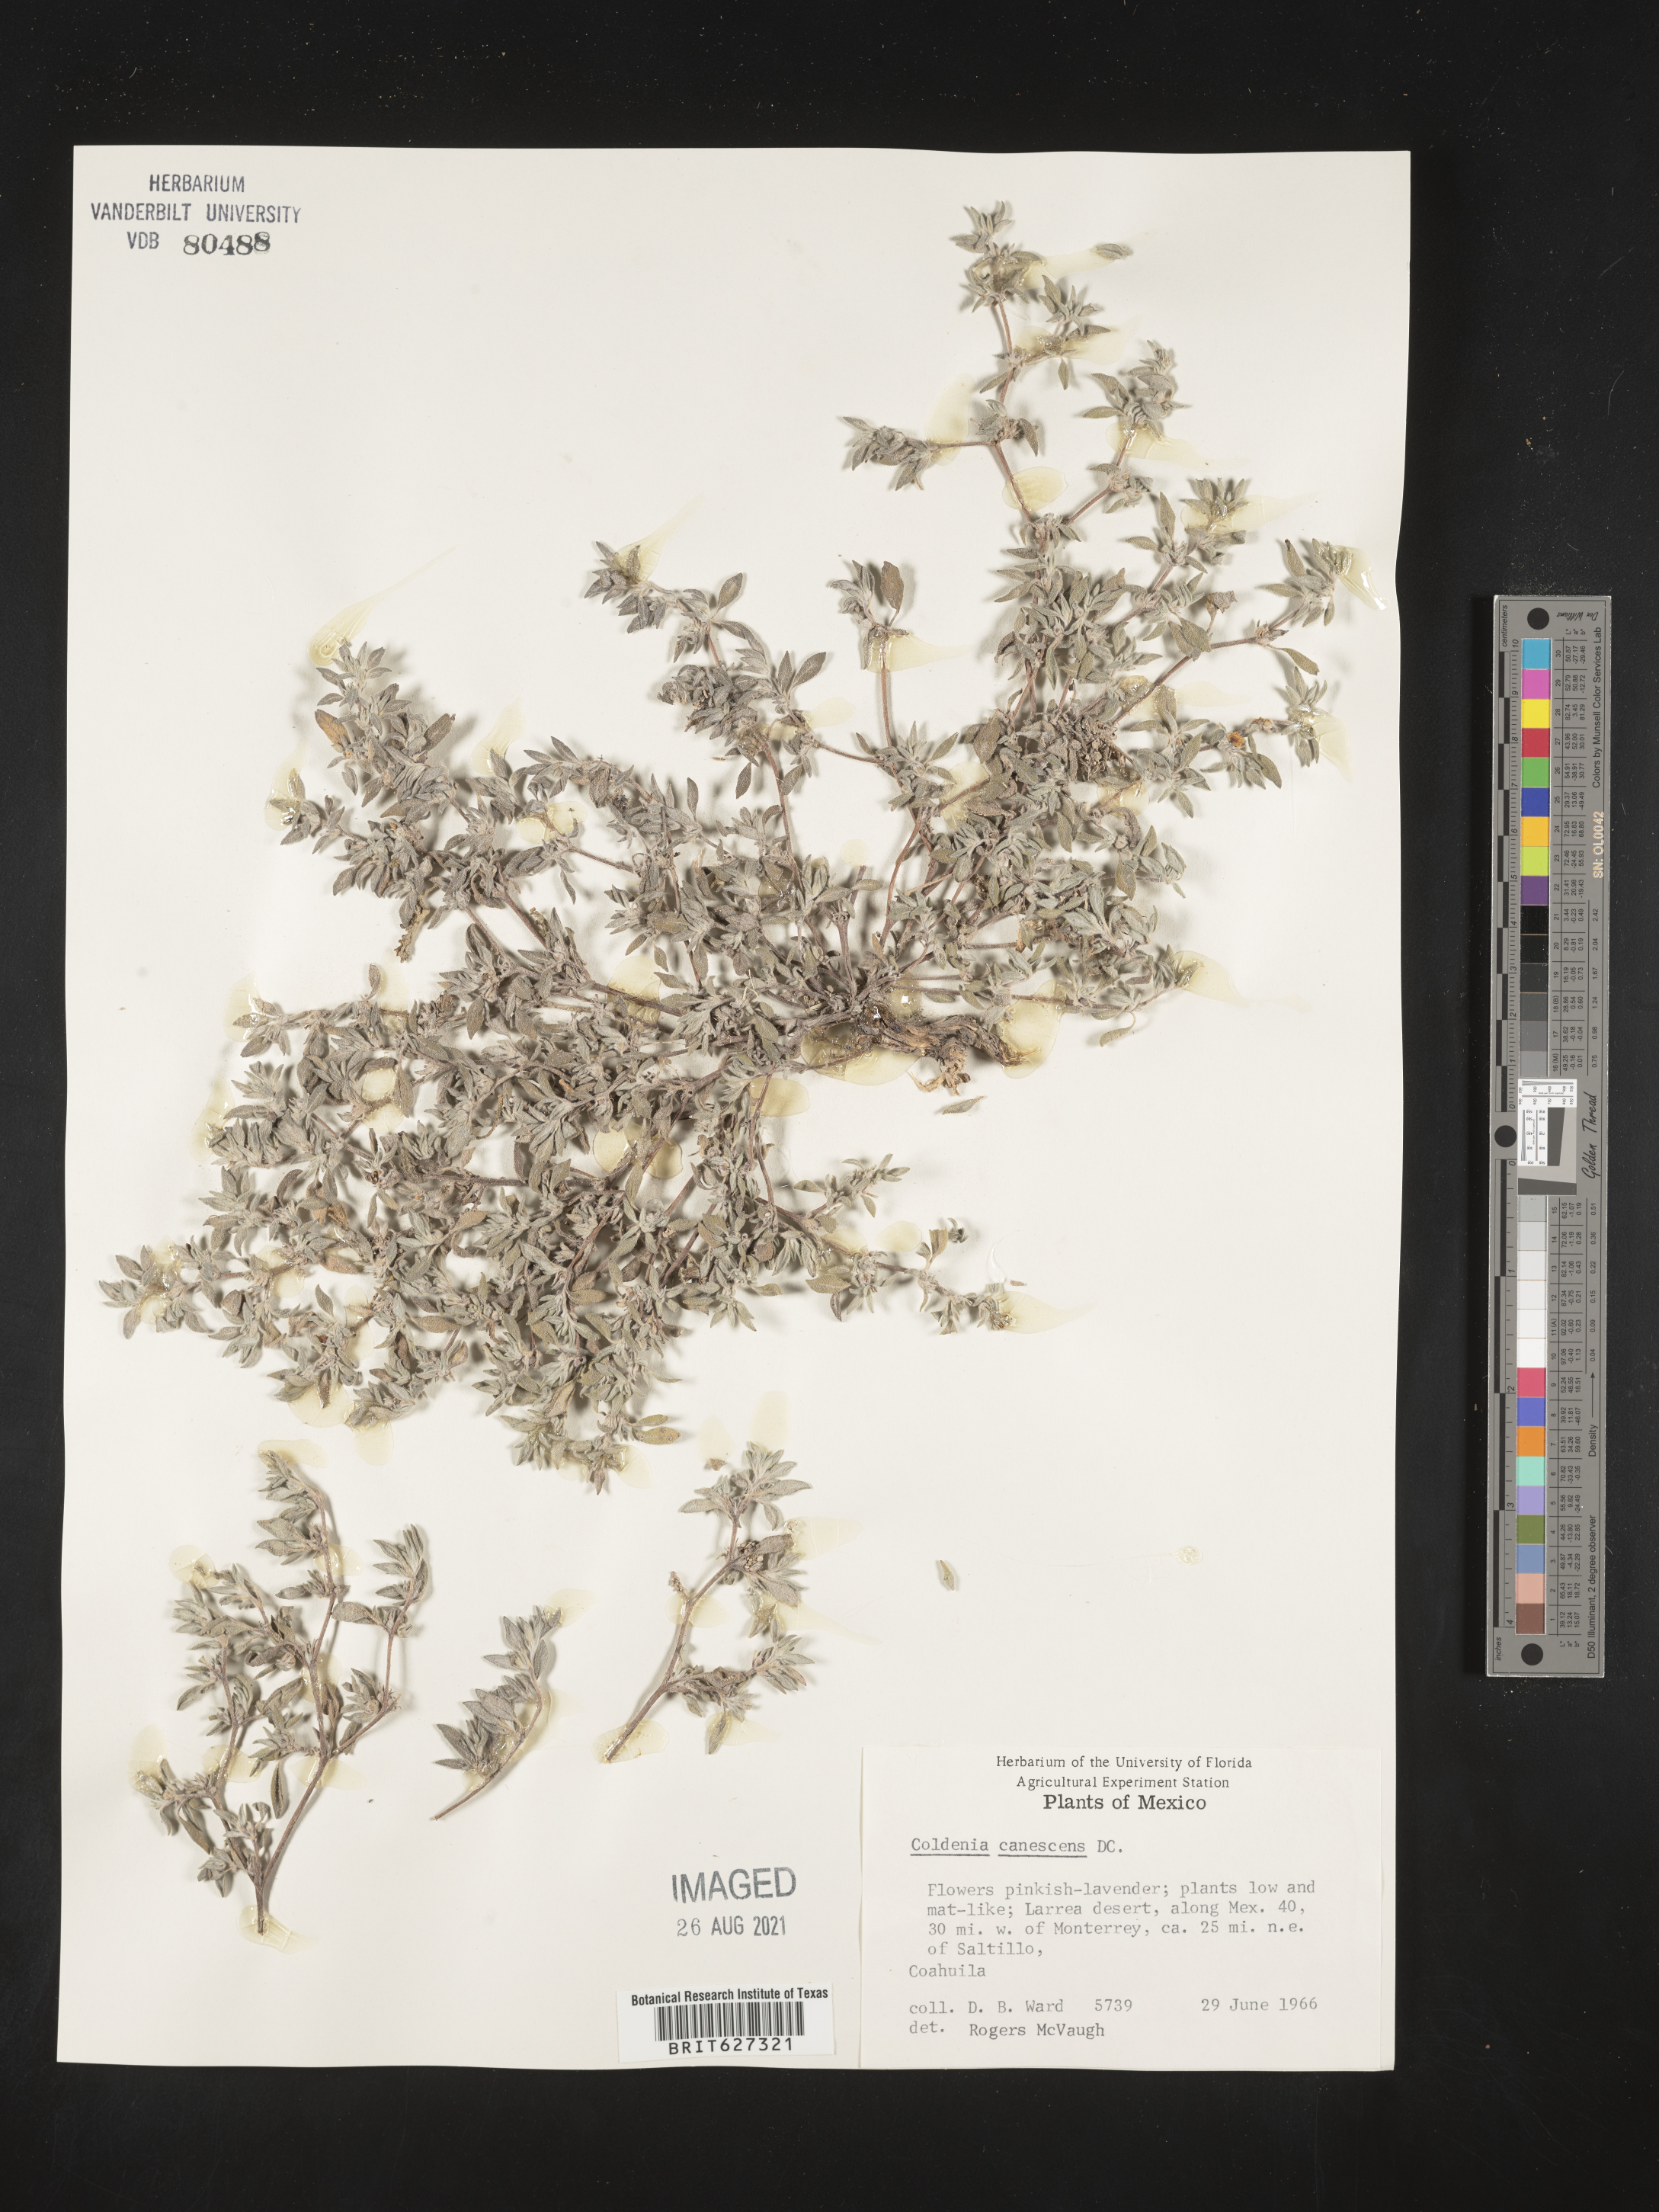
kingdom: Plantae
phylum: Tracheophyta
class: Magnoliopsida
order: Boraginales
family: Coldeniaceae
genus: Coldenia
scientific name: Coldenia
